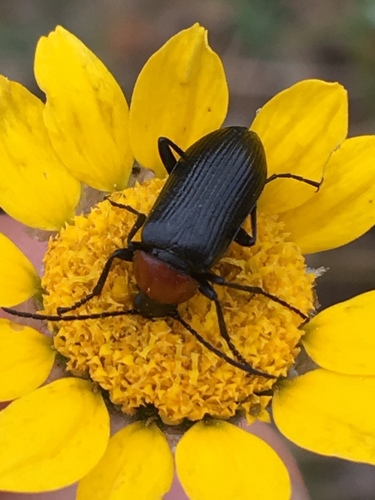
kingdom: Animalia
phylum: Arthropoda
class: Insecta
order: Coleoptera
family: Tenebrionidae
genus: Heliotaurus
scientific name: Heliotaurus ruficollis
